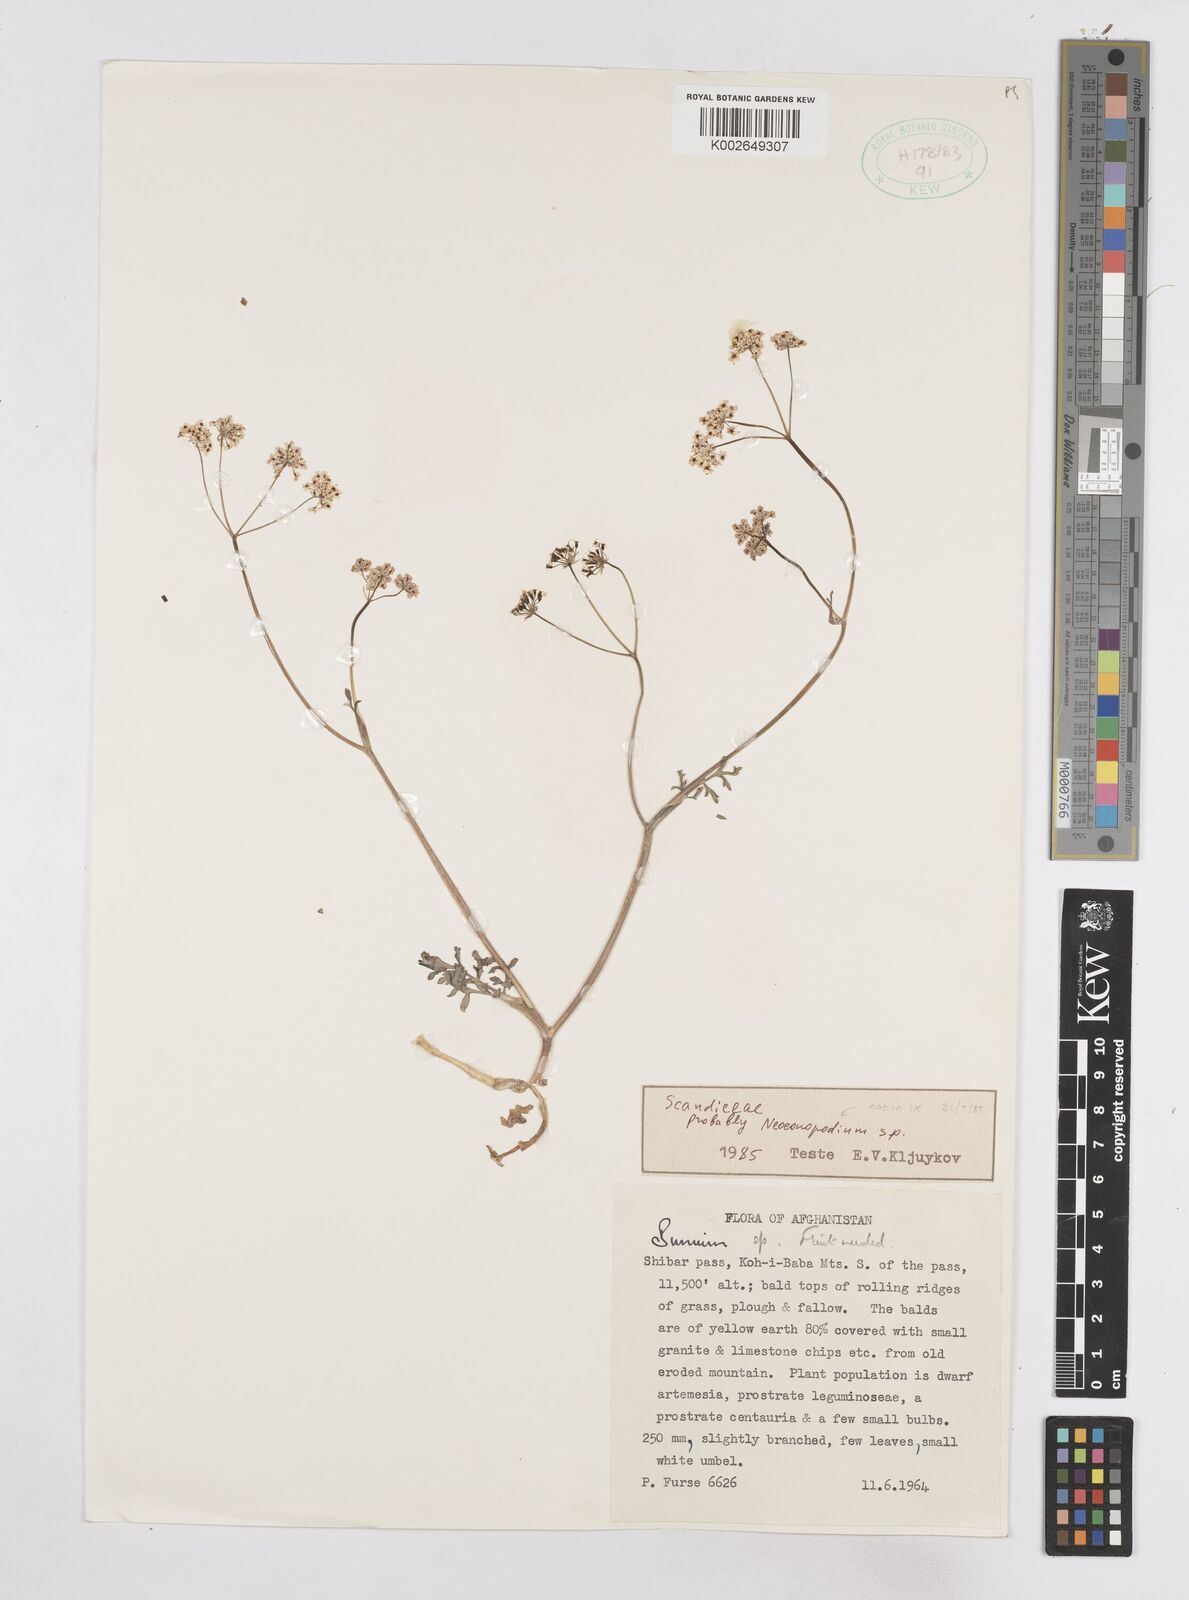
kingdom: Plantae
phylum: Tracheophyta
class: Magnoliopsida
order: Apiales
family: Apiaceae
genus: Bunium
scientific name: Bunium
